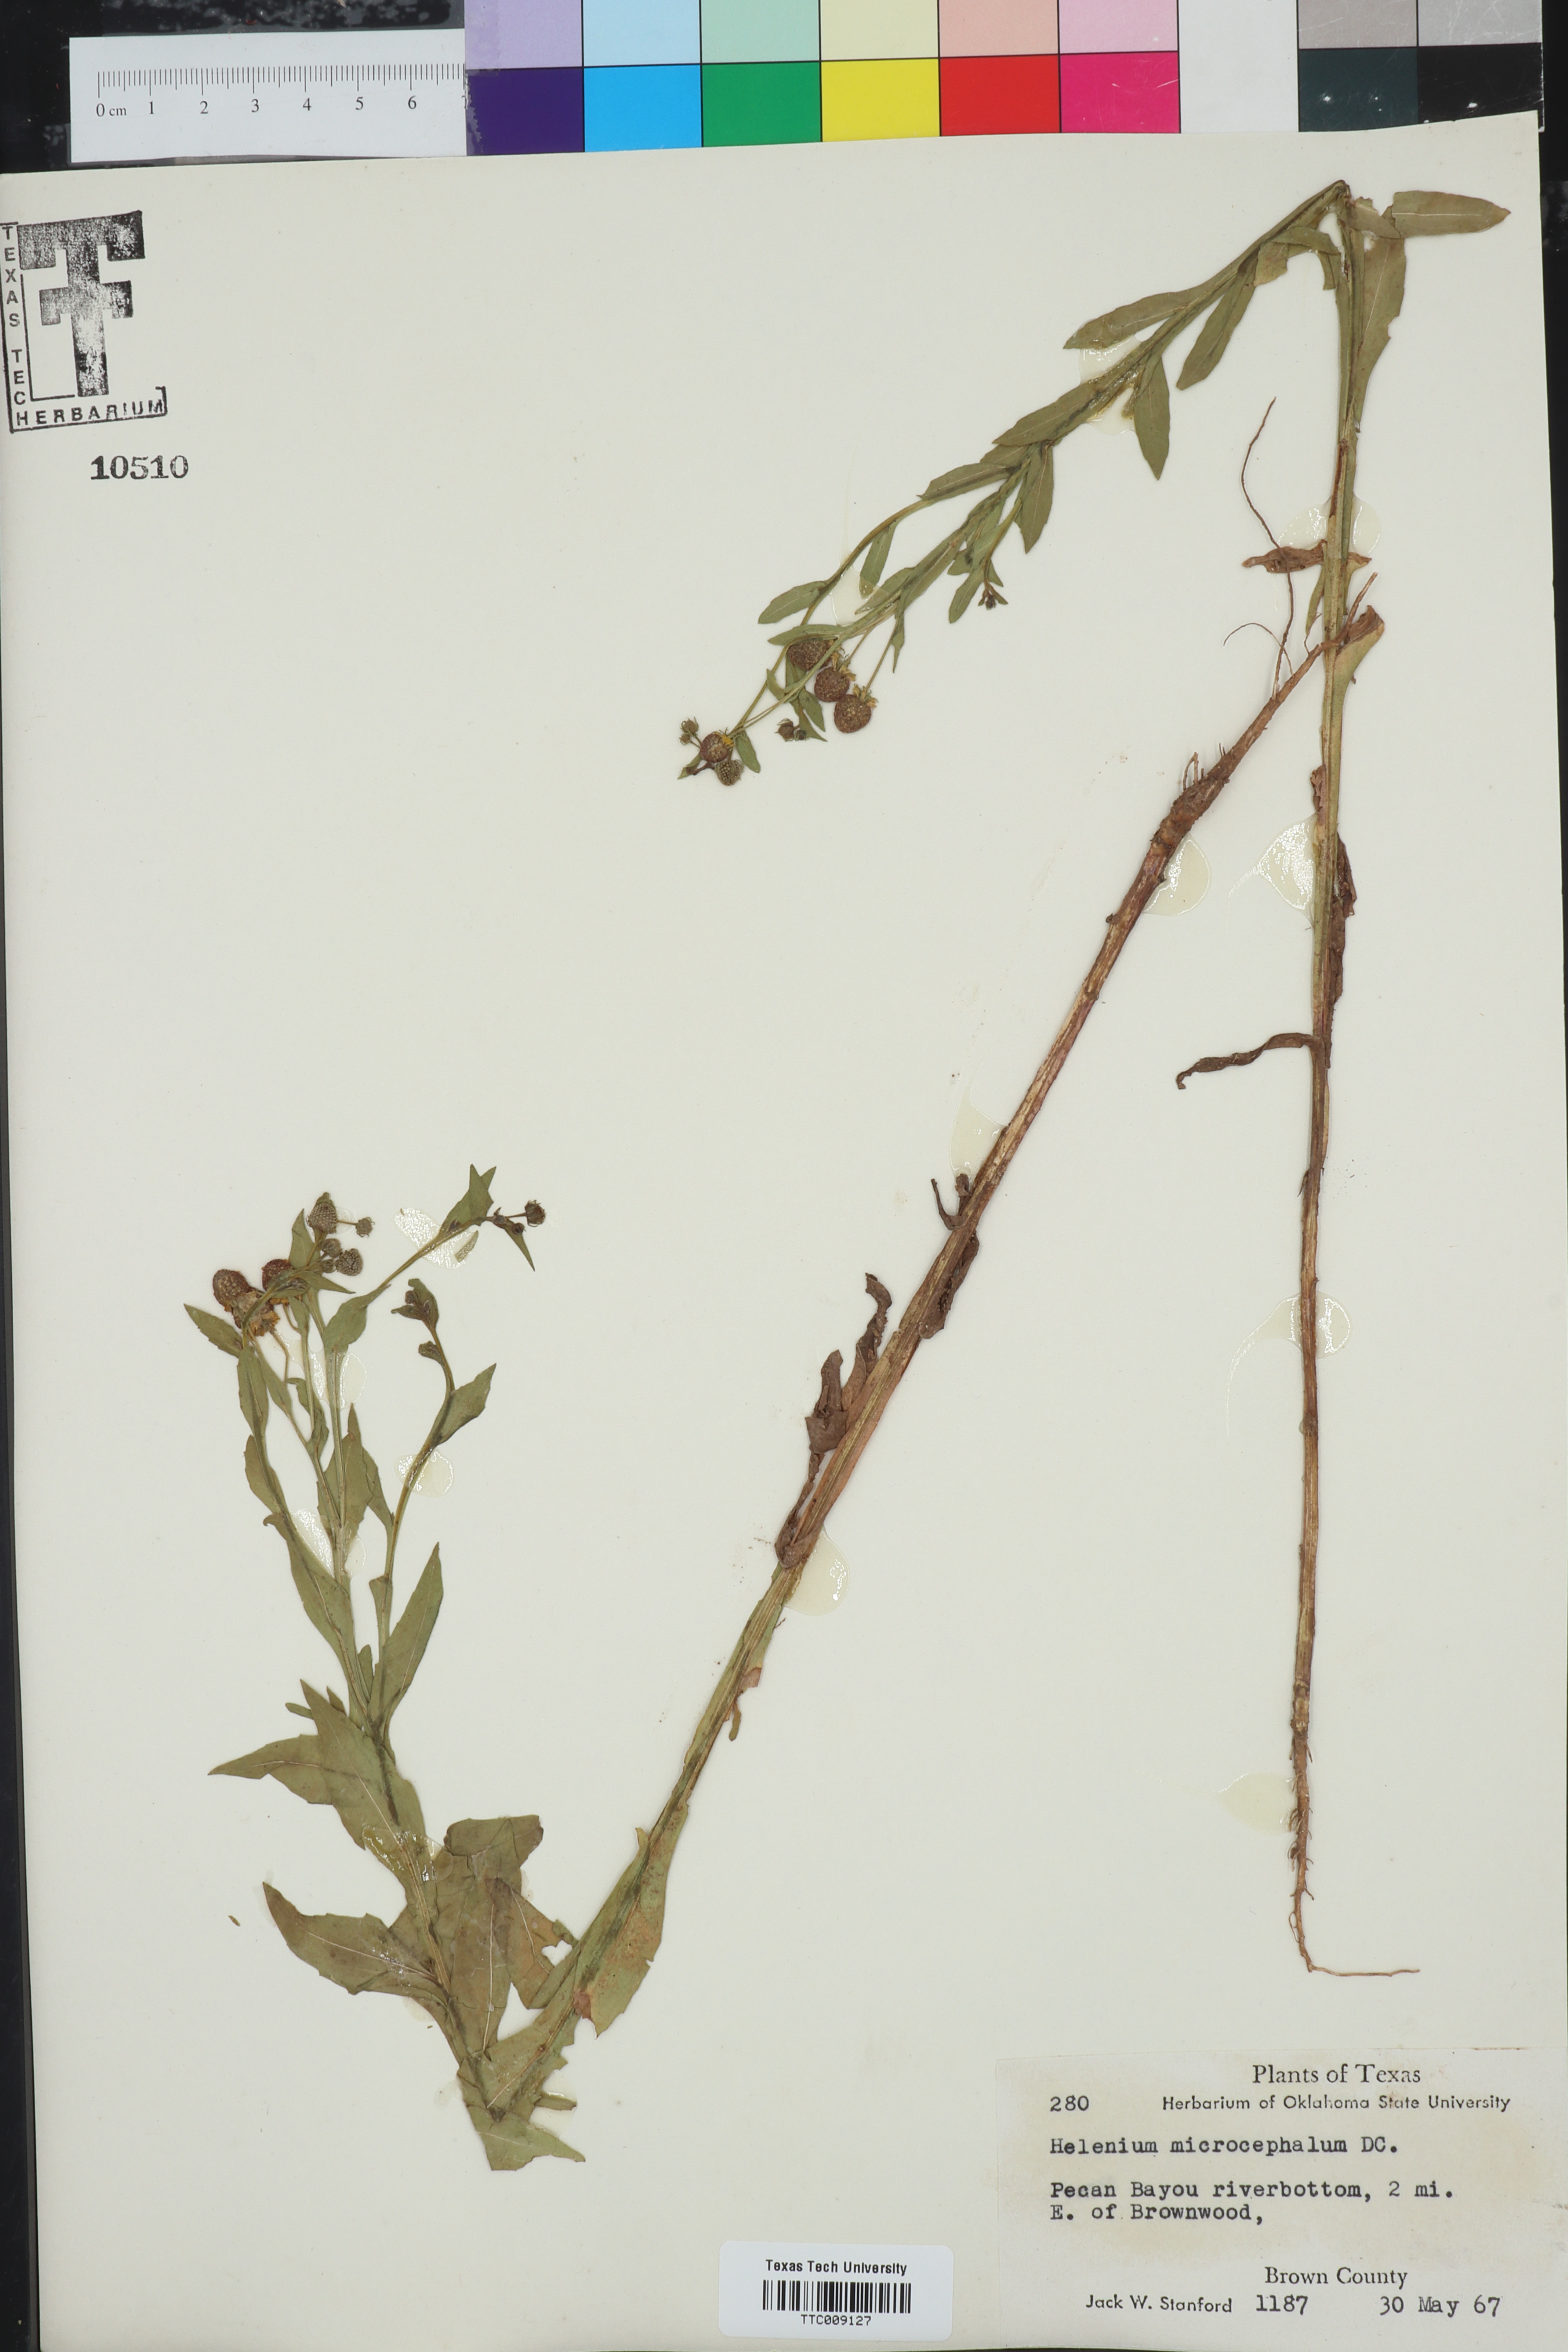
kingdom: Plantae
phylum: Tracheophyta
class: Magnoliopsida
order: Asterales
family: Asteraceae
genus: Helenium
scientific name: Helenium microcephalum
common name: Smallhead sneezeweed
